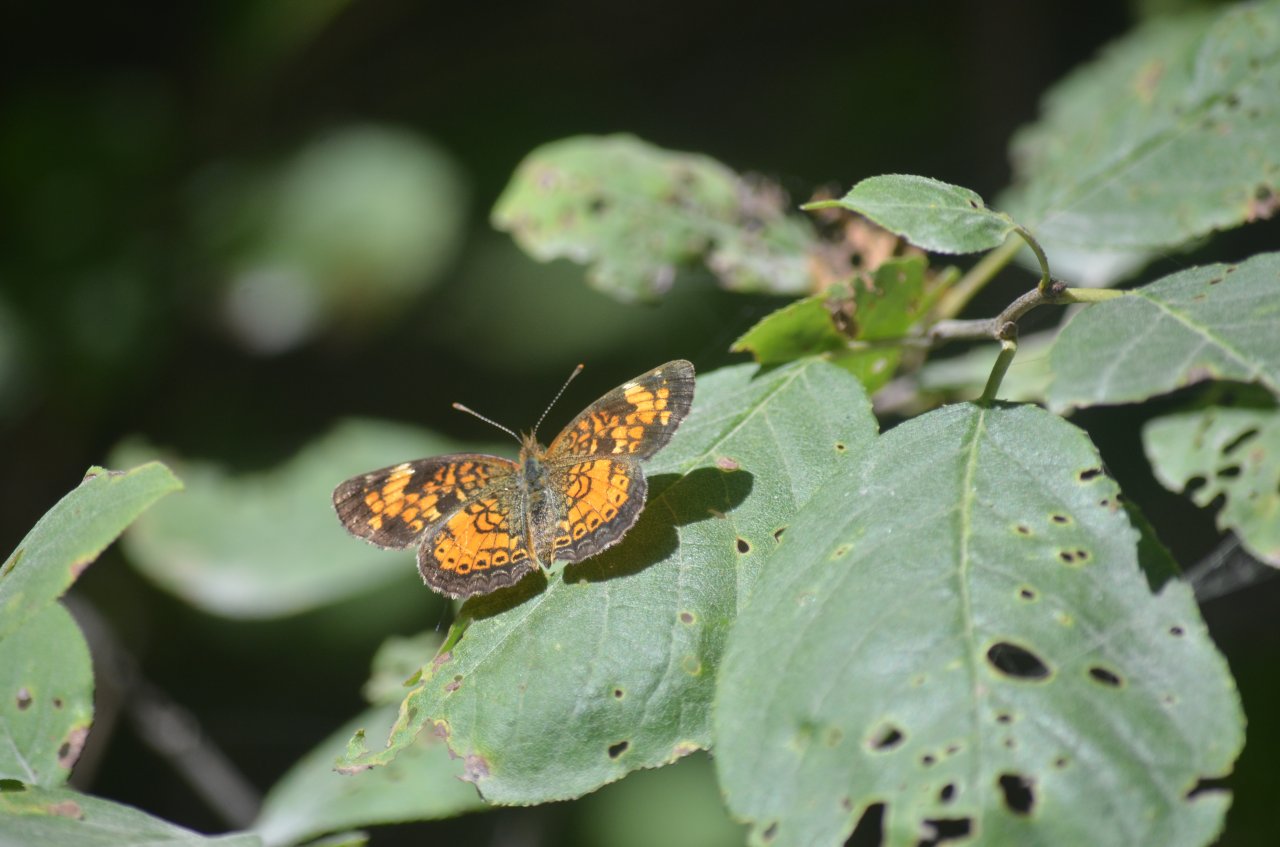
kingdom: Animalia
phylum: Arthropoda
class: Insecta
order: Lepidoptera
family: Nymphalidae
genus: Phyciodes
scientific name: Phyciodes tharos
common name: Northern Crescent
